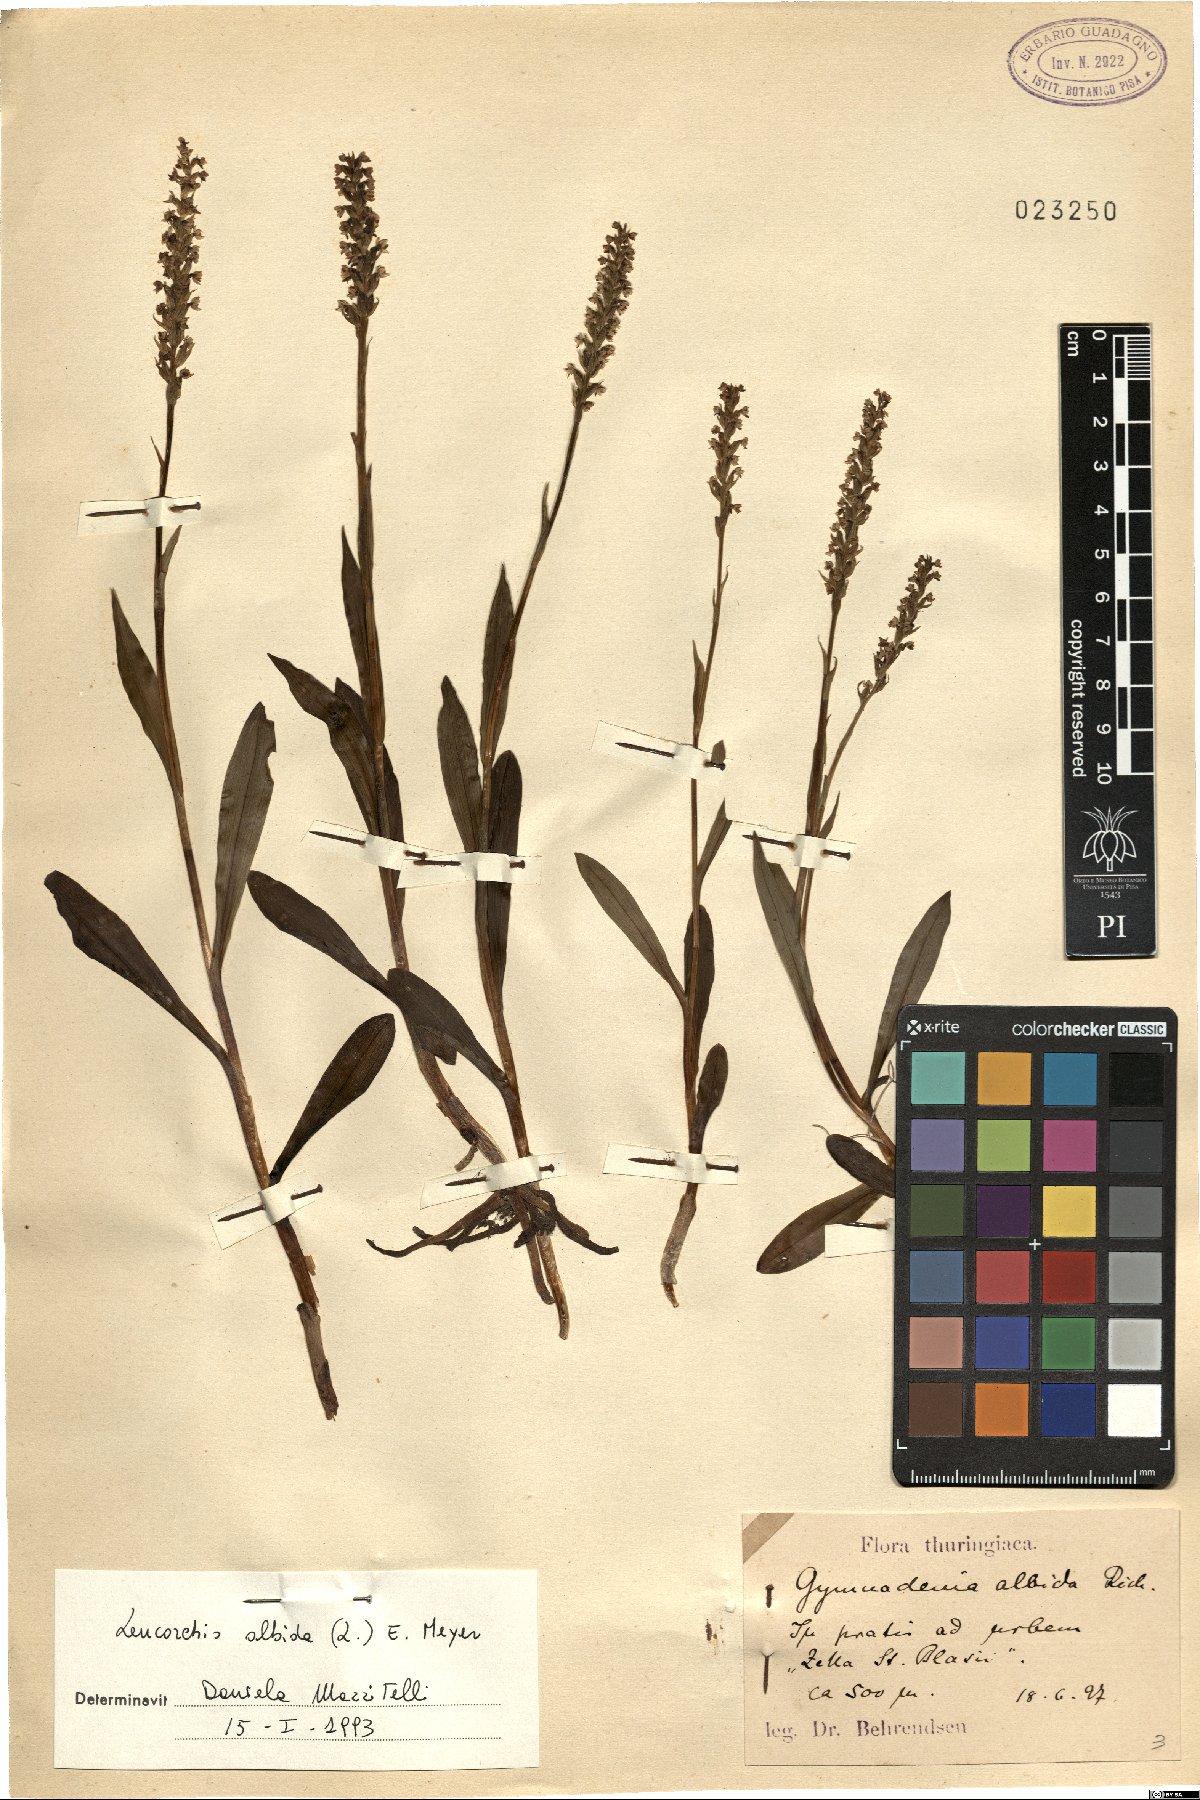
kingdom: Plantae
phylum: Tracheophyta
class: Liliopsida
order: Asparagales
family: Orchidaceae
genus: Pseudorchis
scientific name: Pseudorchis albida
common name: Small-white orchid
